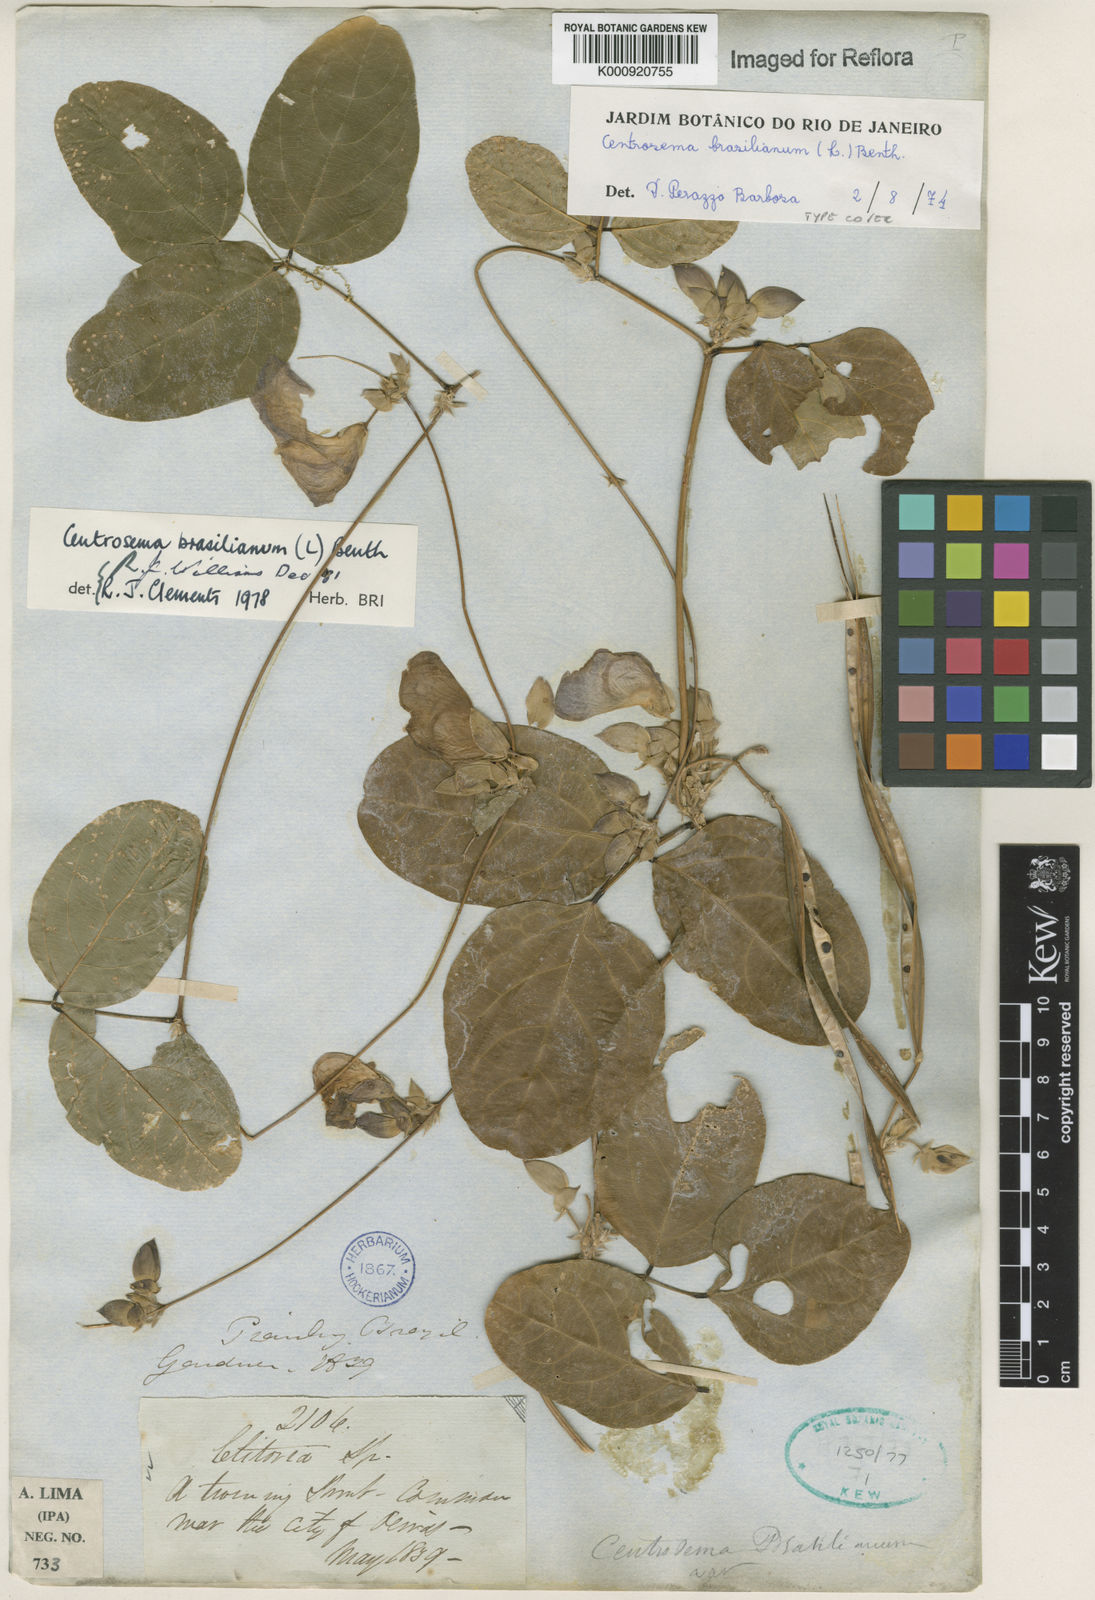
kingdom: Plantae
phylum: Tracheophyta
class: Magnoliopsida
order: Fabales
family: Fabaceae
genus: Centrosema
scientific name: Centrosema brasilianum
